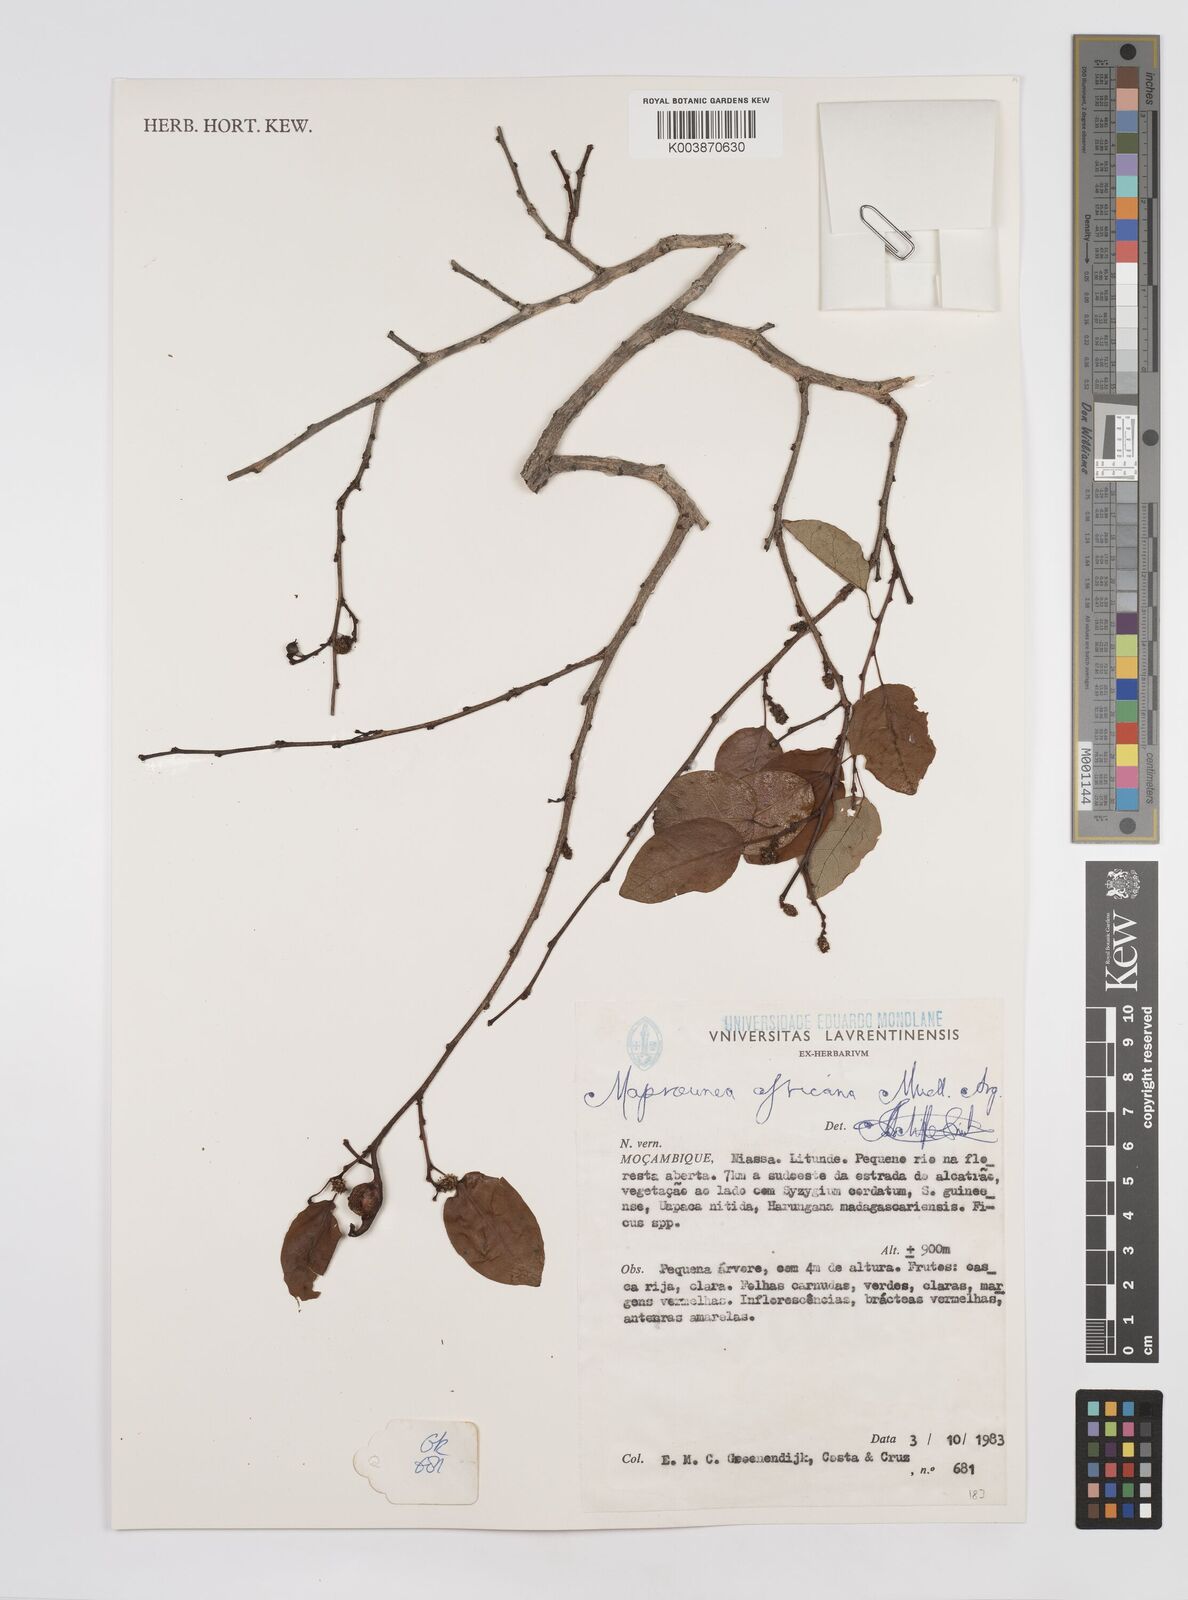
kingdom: Plantae
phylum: Tracheophyta
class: Magnoliopsida
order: Malpighiales
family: Euphorbiaceae
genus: Maprounea
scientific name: Maprounea africana
